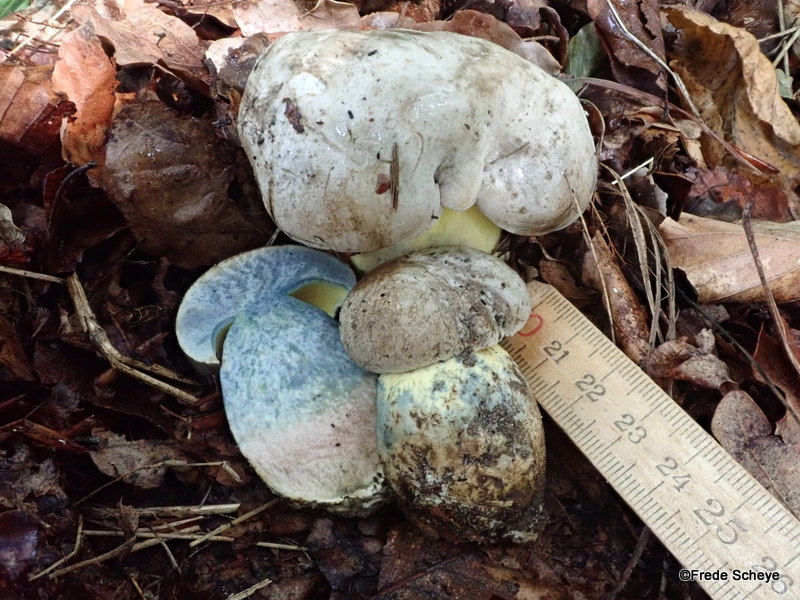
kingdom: Fungi
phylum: Basidiomycota
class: Agaricomycetes
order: Boletales
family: Boletaceae
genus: Caloboletus
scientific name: Caloboletus radicans
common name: rod-rørhat
